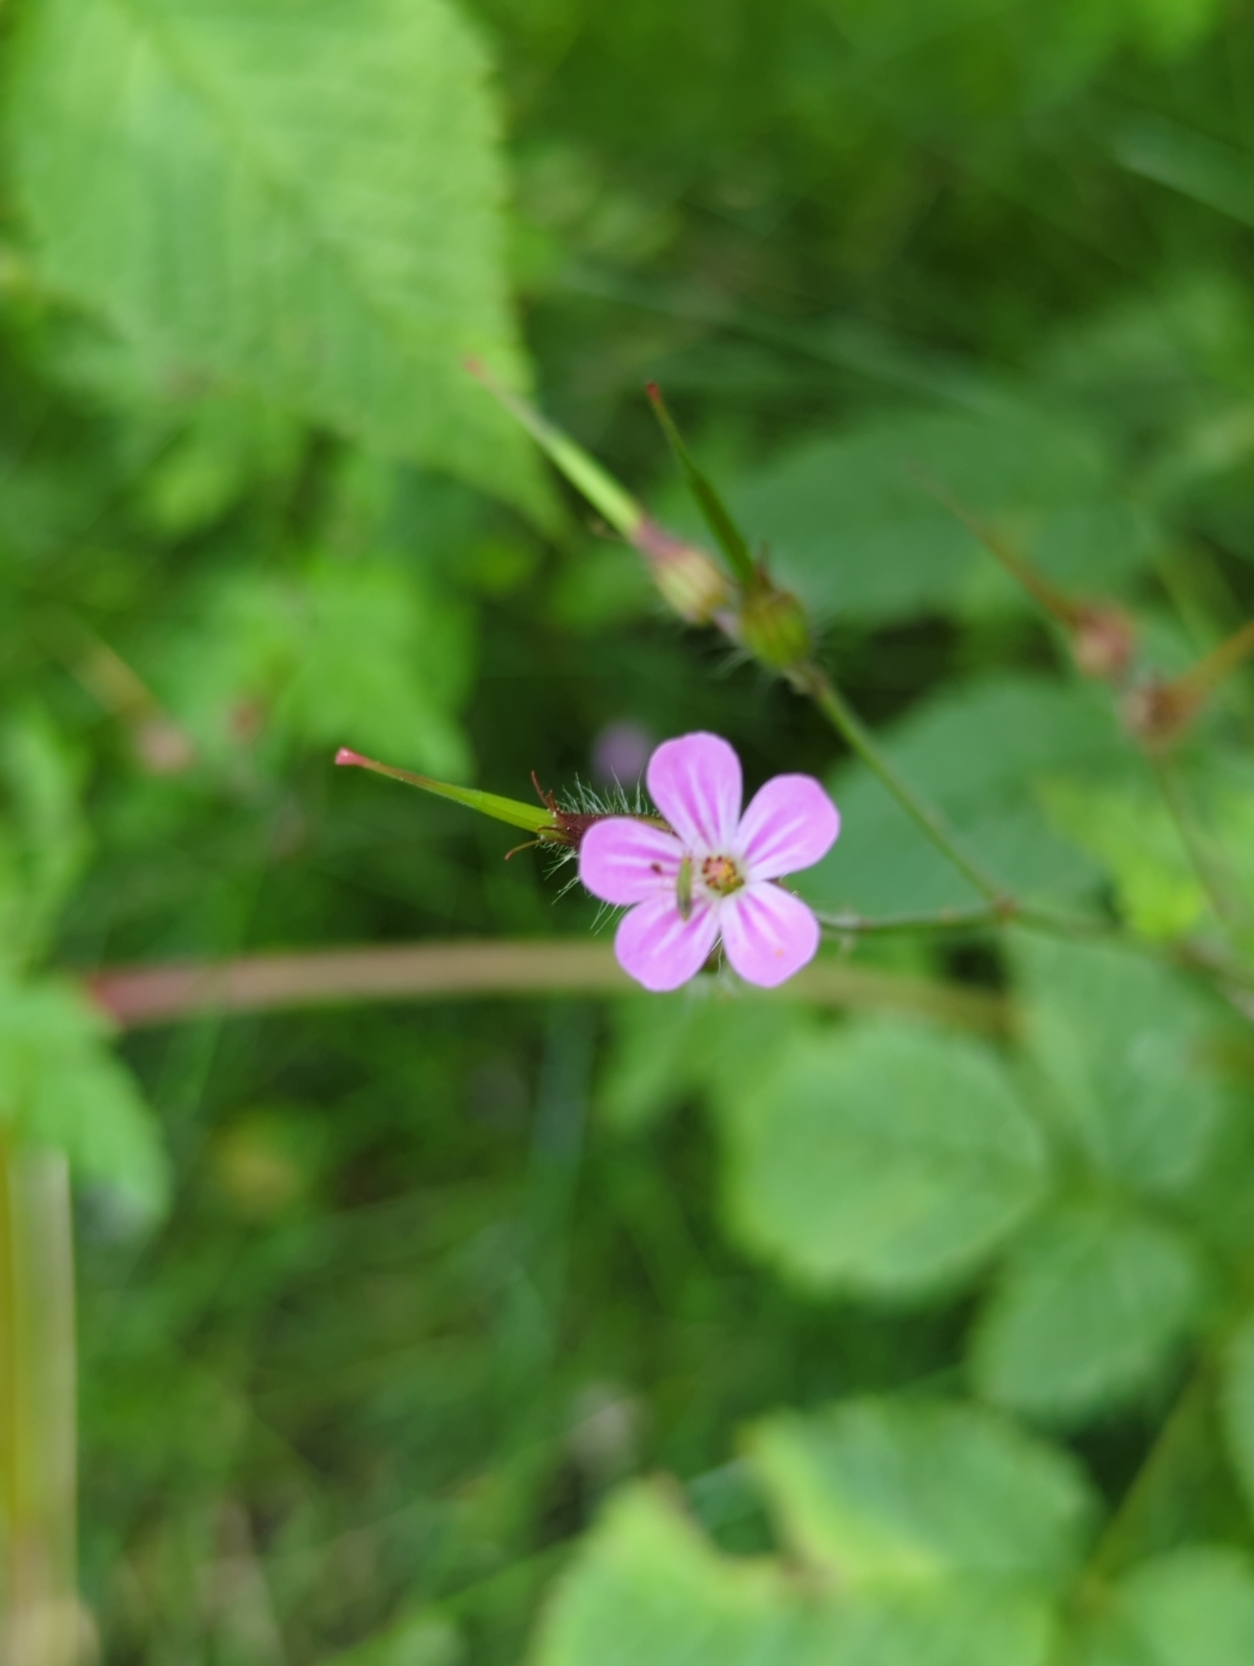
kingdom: Plantae
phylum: Tracheophyta
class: Magnoliopsida
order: Geraniales
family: Geraniaceae
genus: Geranium
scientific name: Geranium robertianum
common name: Stinkende storkenæb
